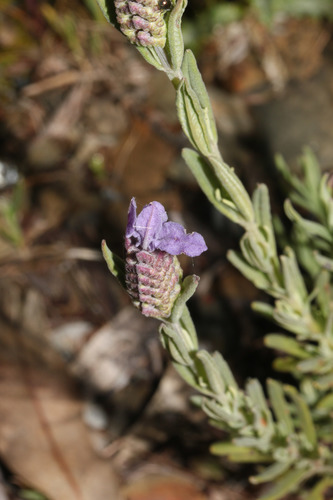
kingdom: Plantae
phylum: Tracheophyta
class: Magnoliopsida
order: Lamiales
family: Lamiaceae
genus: Lavandula
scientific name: Lavandula stoechas
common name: French lavender
